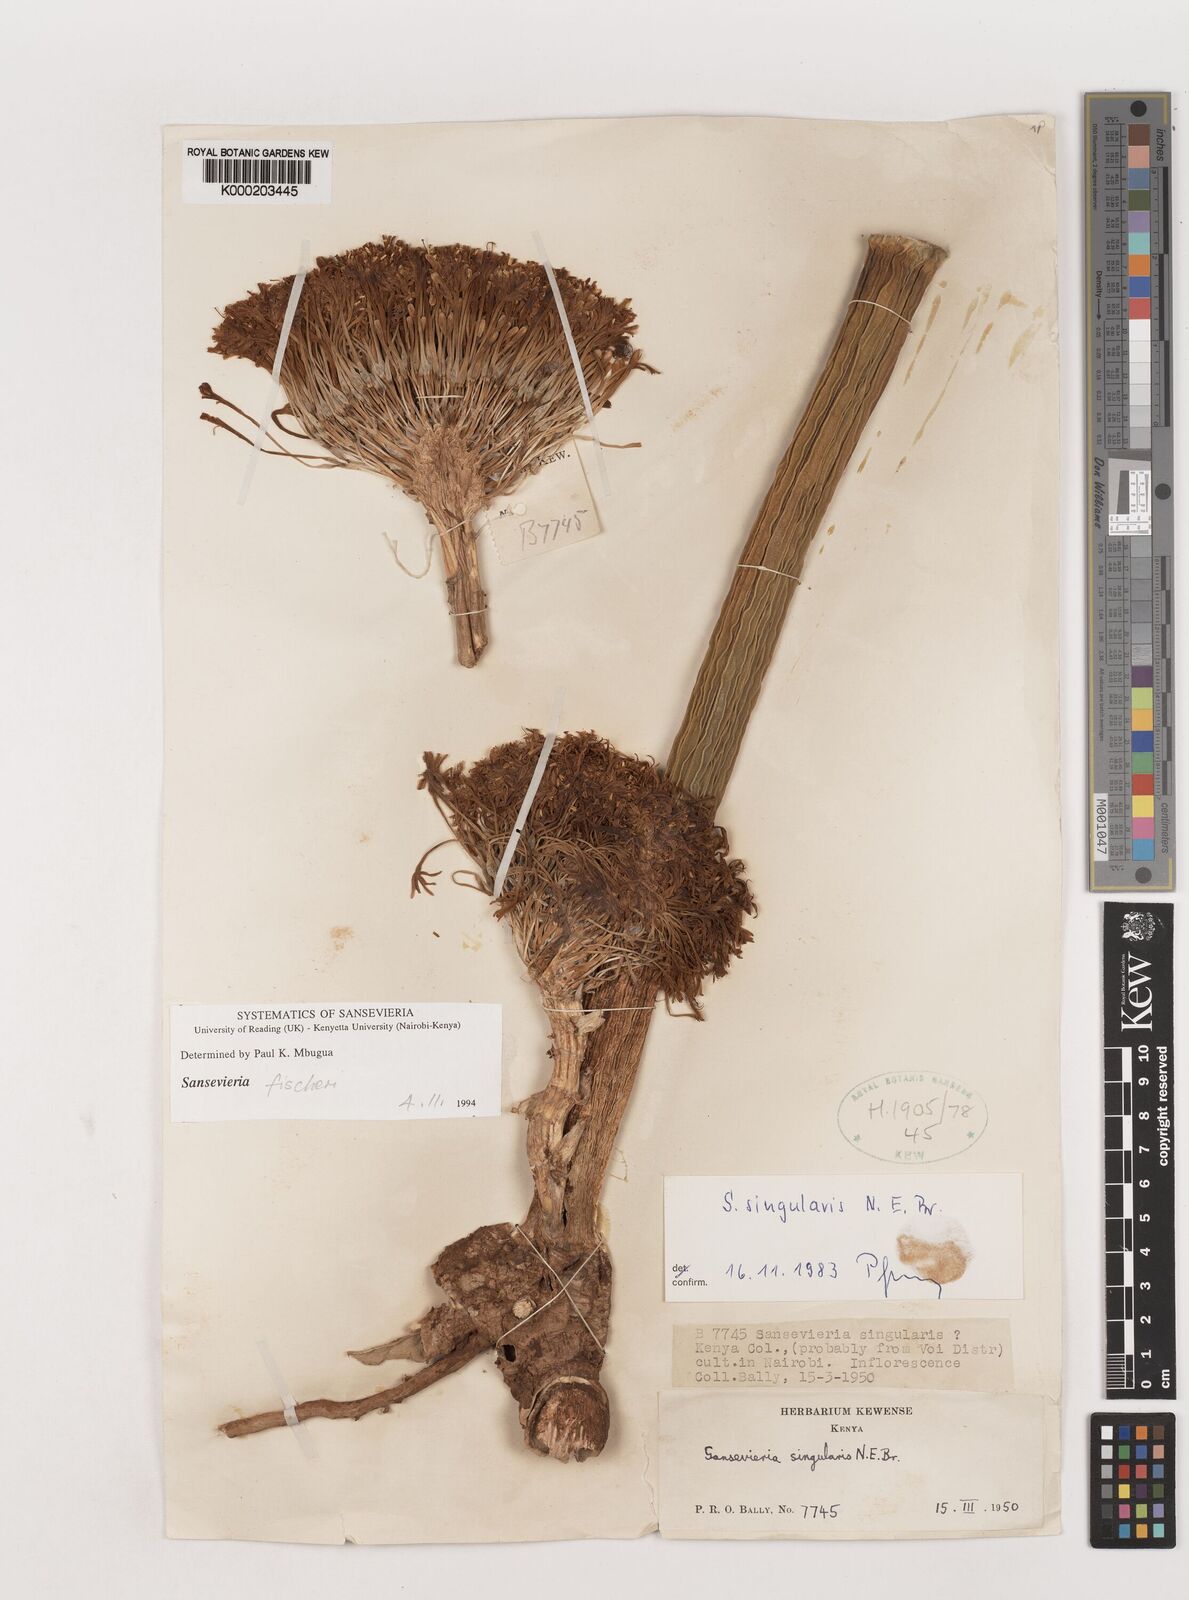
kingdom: Plantae
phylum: Tracheophyta
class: Liliopsida
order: Asparagales
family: Asparagaceae
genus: Dracaena
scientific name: Dracaena singularis
